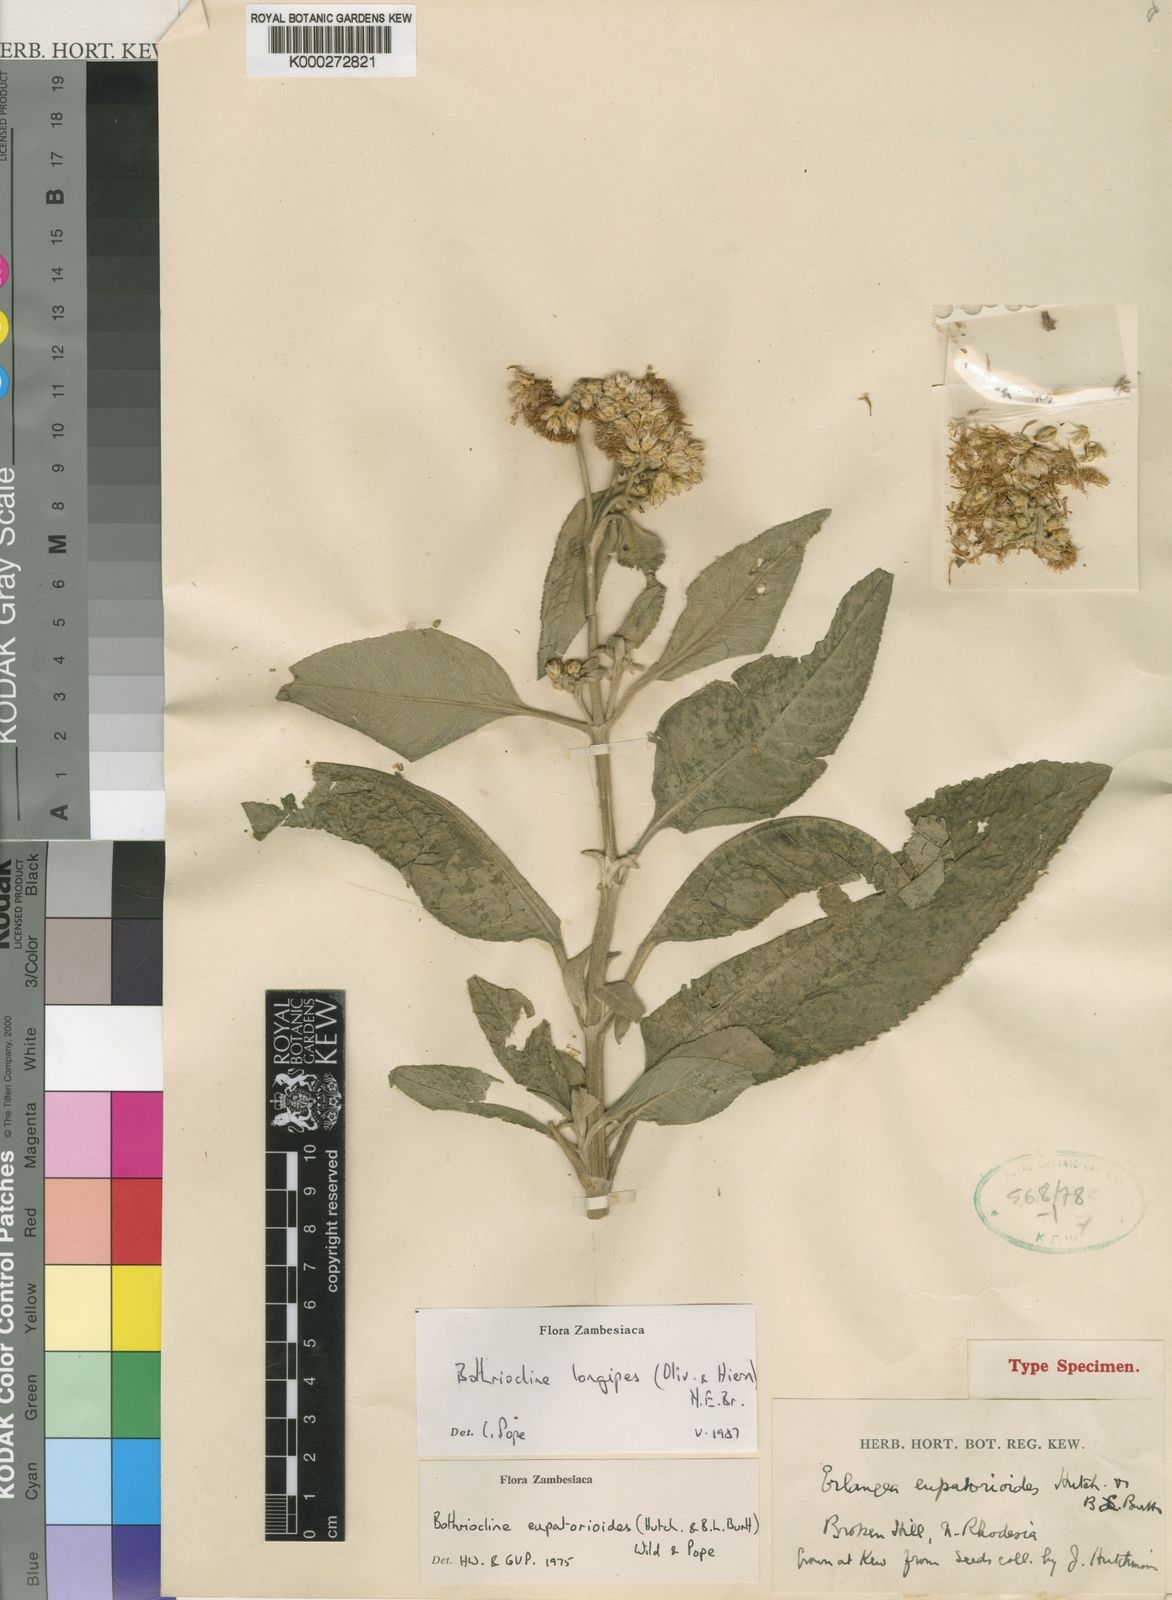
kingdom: Plantae
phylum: Tracheophyta
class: Magnoliopsida
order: Asterales
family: Asteraceae
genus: Bothriocline
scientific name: Bothriocline longipes
